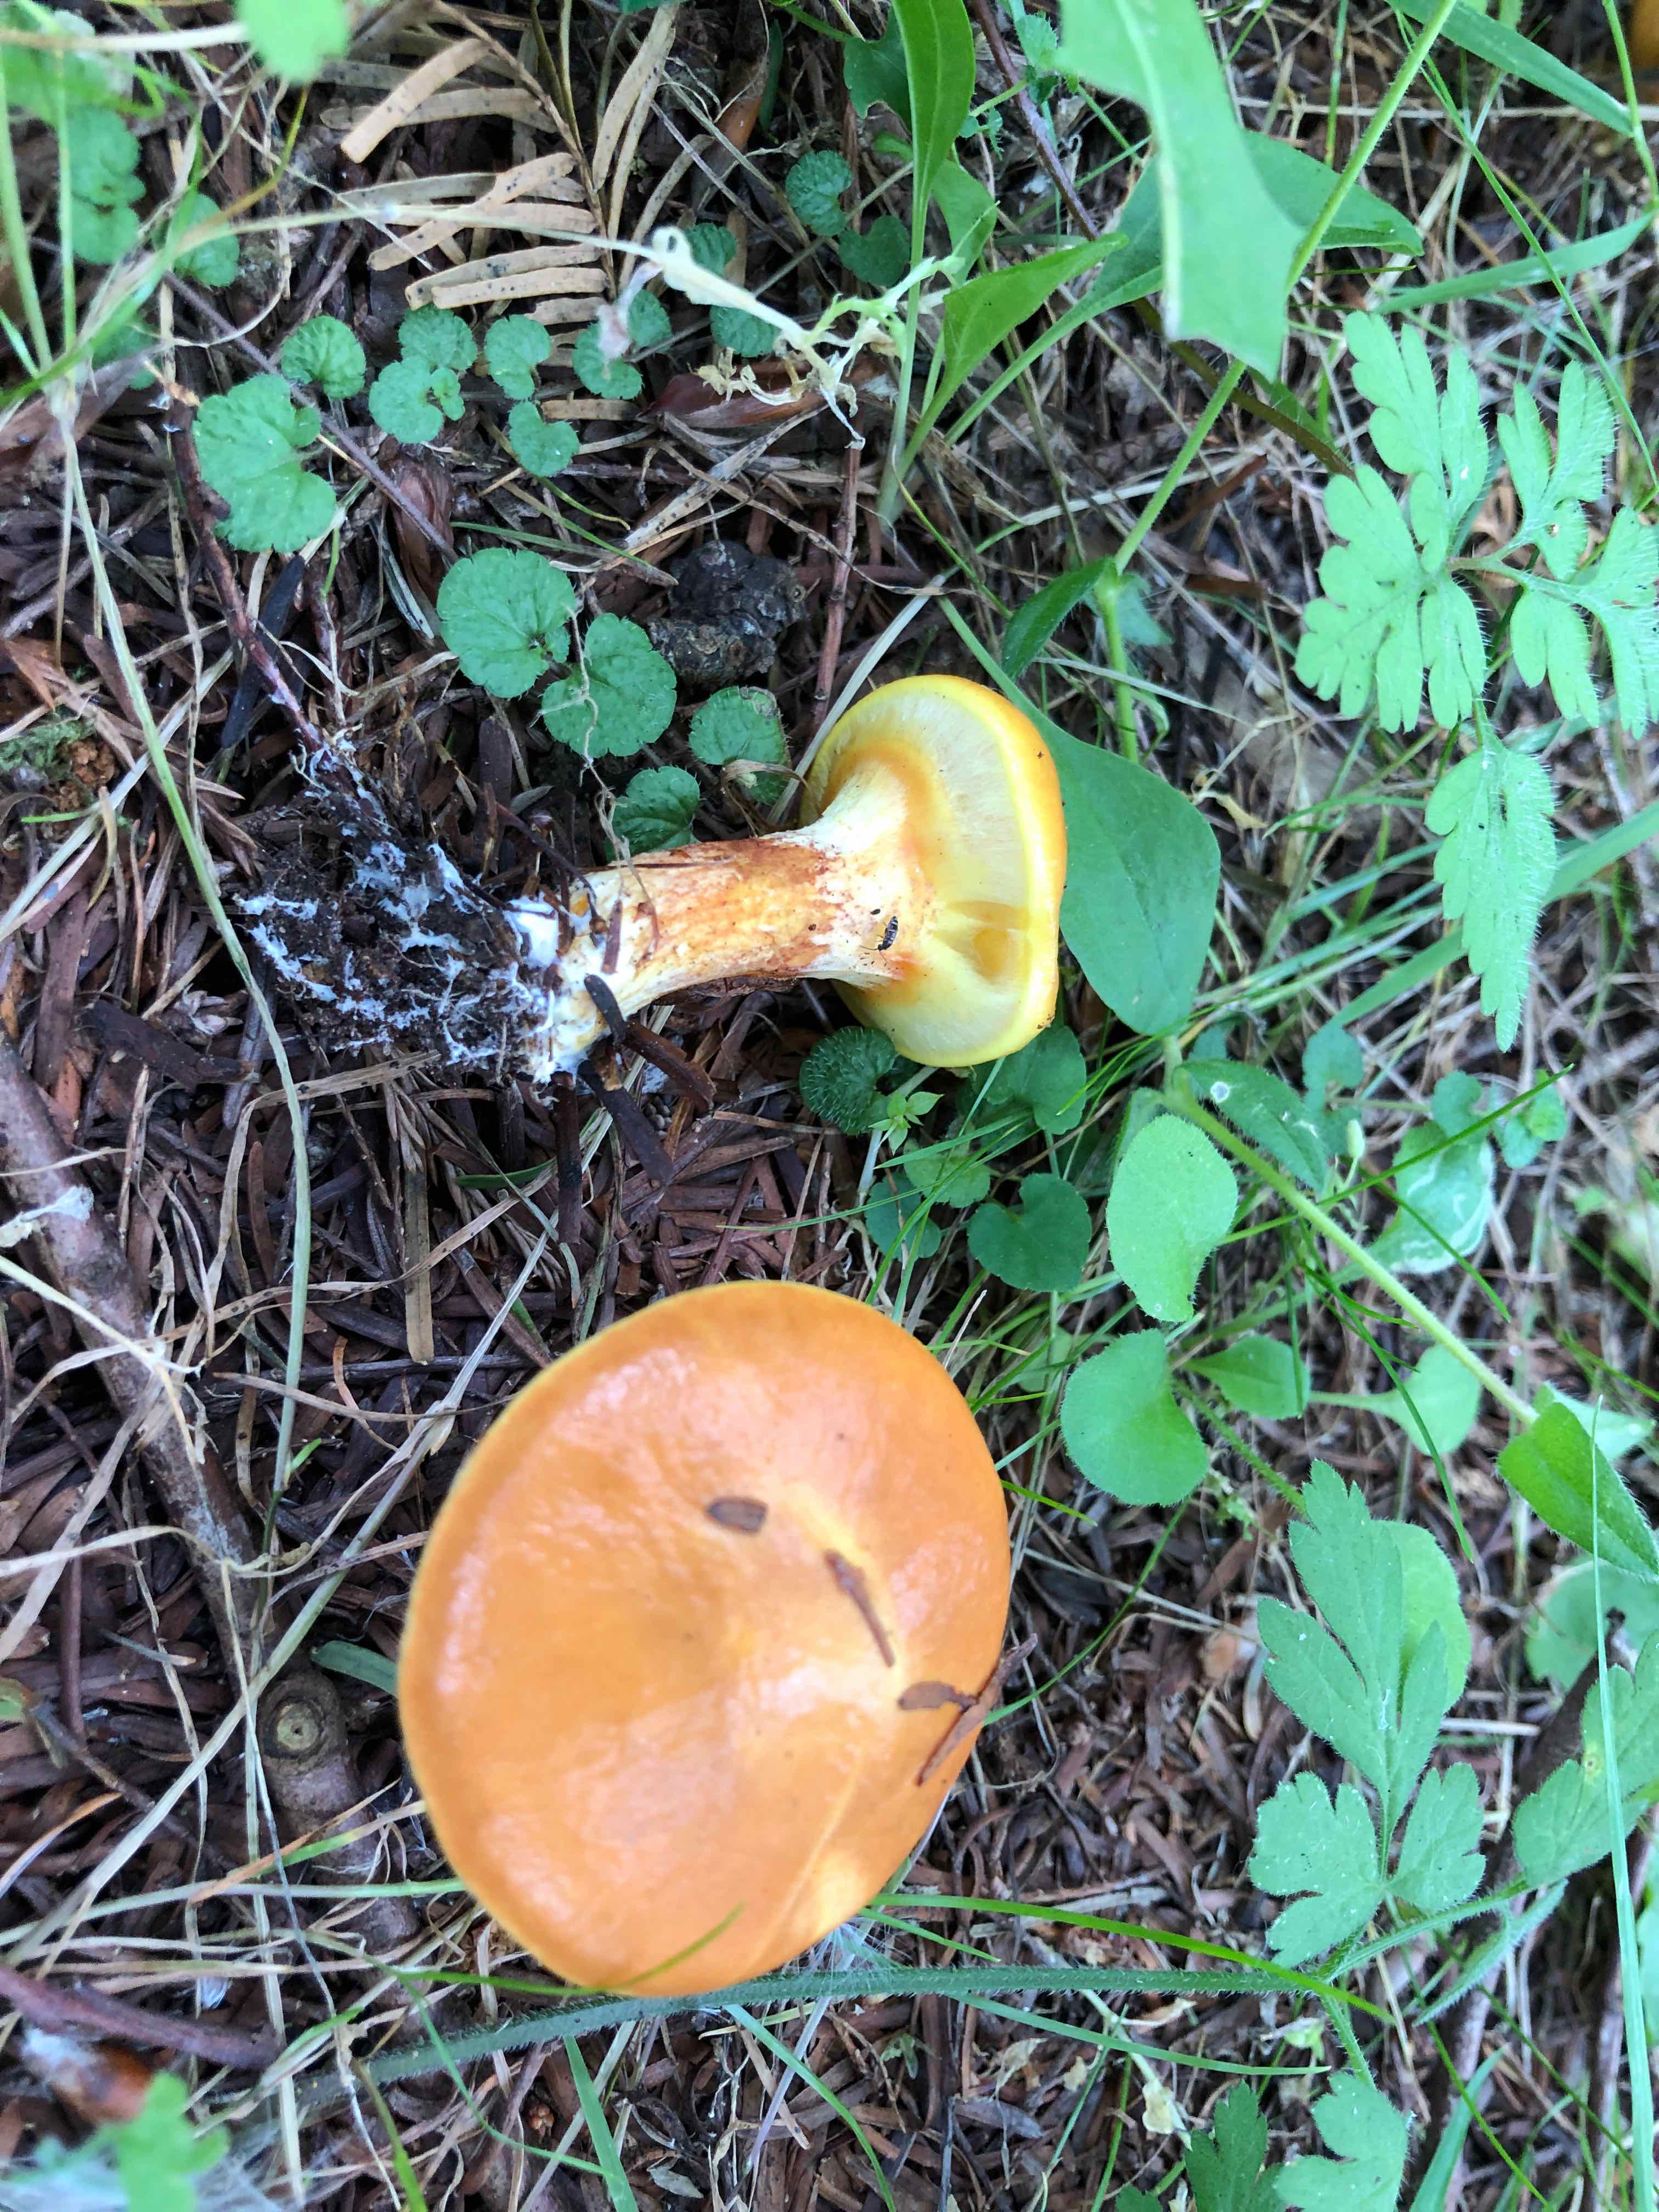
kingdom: Fungi
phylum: Basidiomycota
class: Agaricomycetes
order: Boletales
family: Suillaceae
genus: Suillus
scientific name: Suillus grevillei
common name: lærke-slimrørhat
